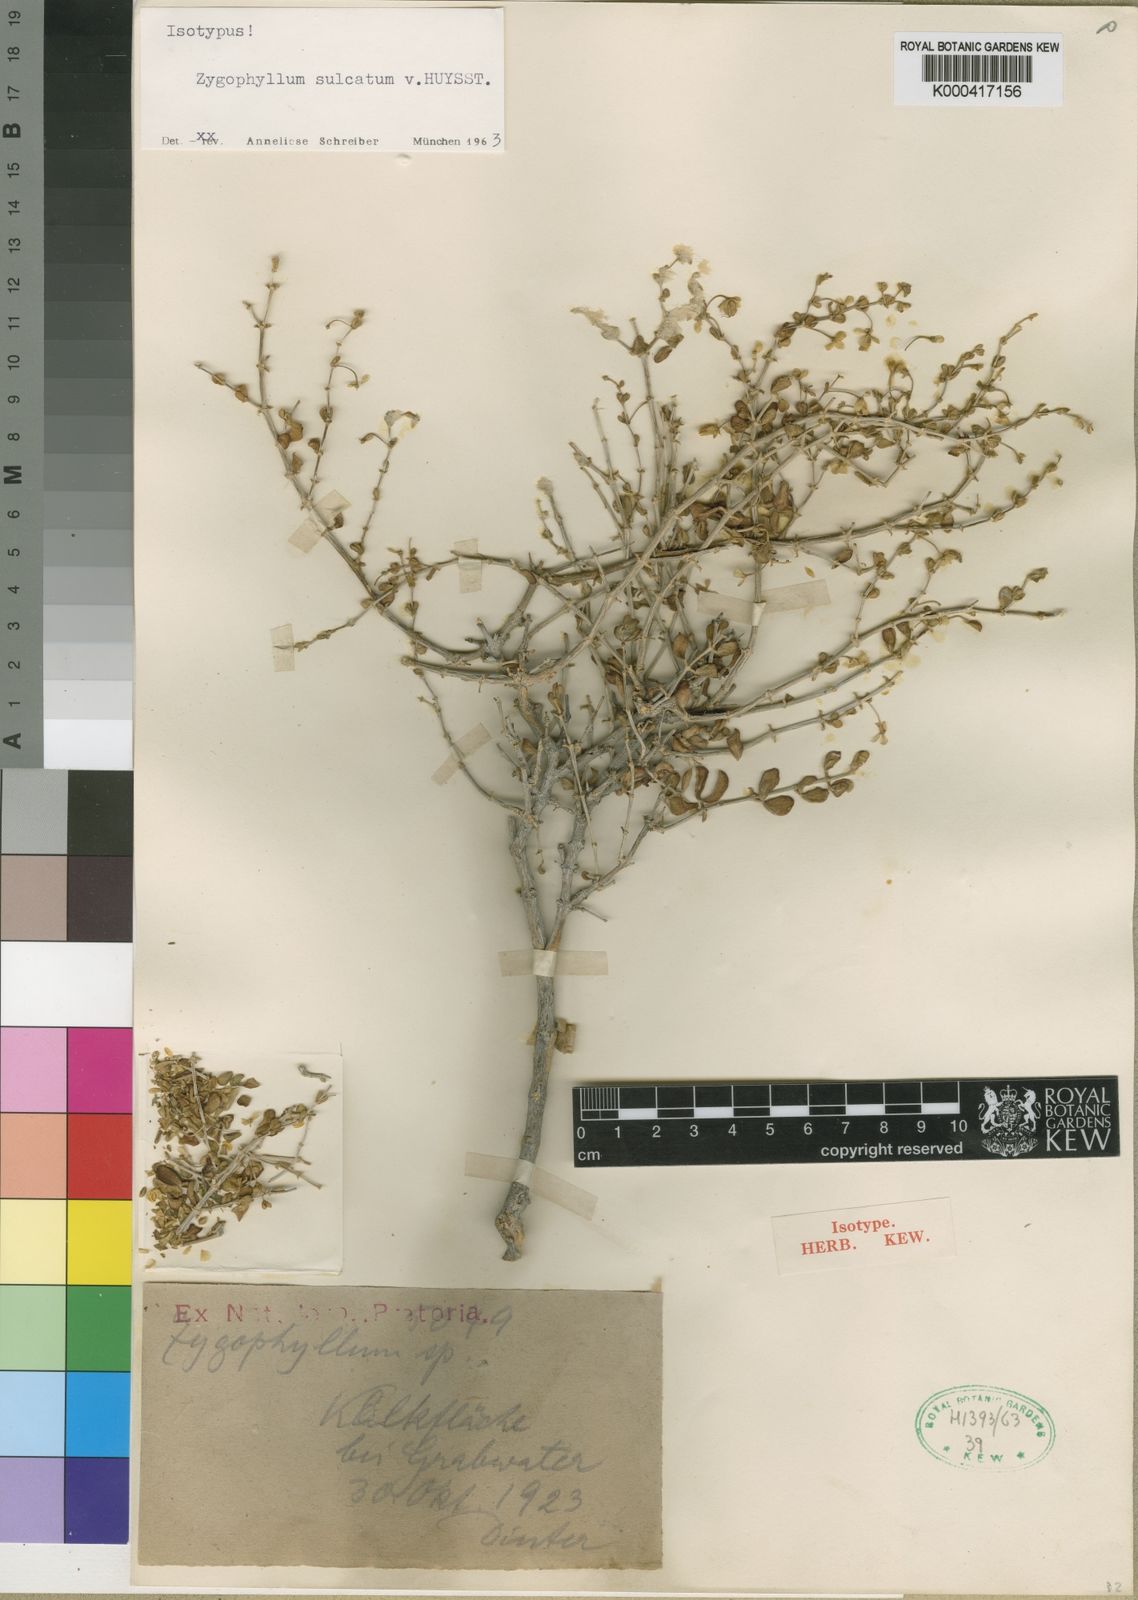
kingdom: Plantae
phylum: Tracheophyta
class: Magnoliopsida
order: Zygophyllales
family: Zygophyllaceae
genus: Roepera
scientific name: Roepera leucoclada
